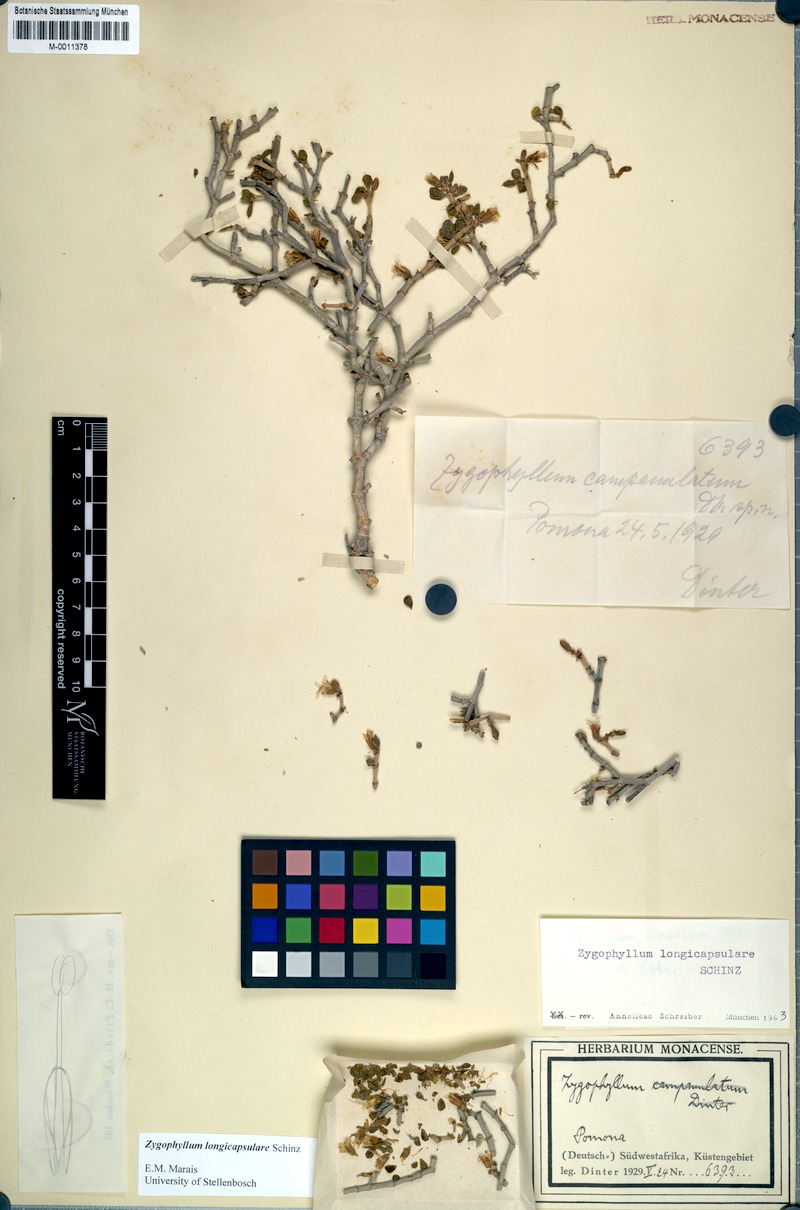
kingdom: Plantae
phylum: Tracheophyta
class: Magnoliopsida
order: Zygophyllales
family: Zygophyllaceae
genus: Tetraena
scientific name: Tetraena longicapsularis
